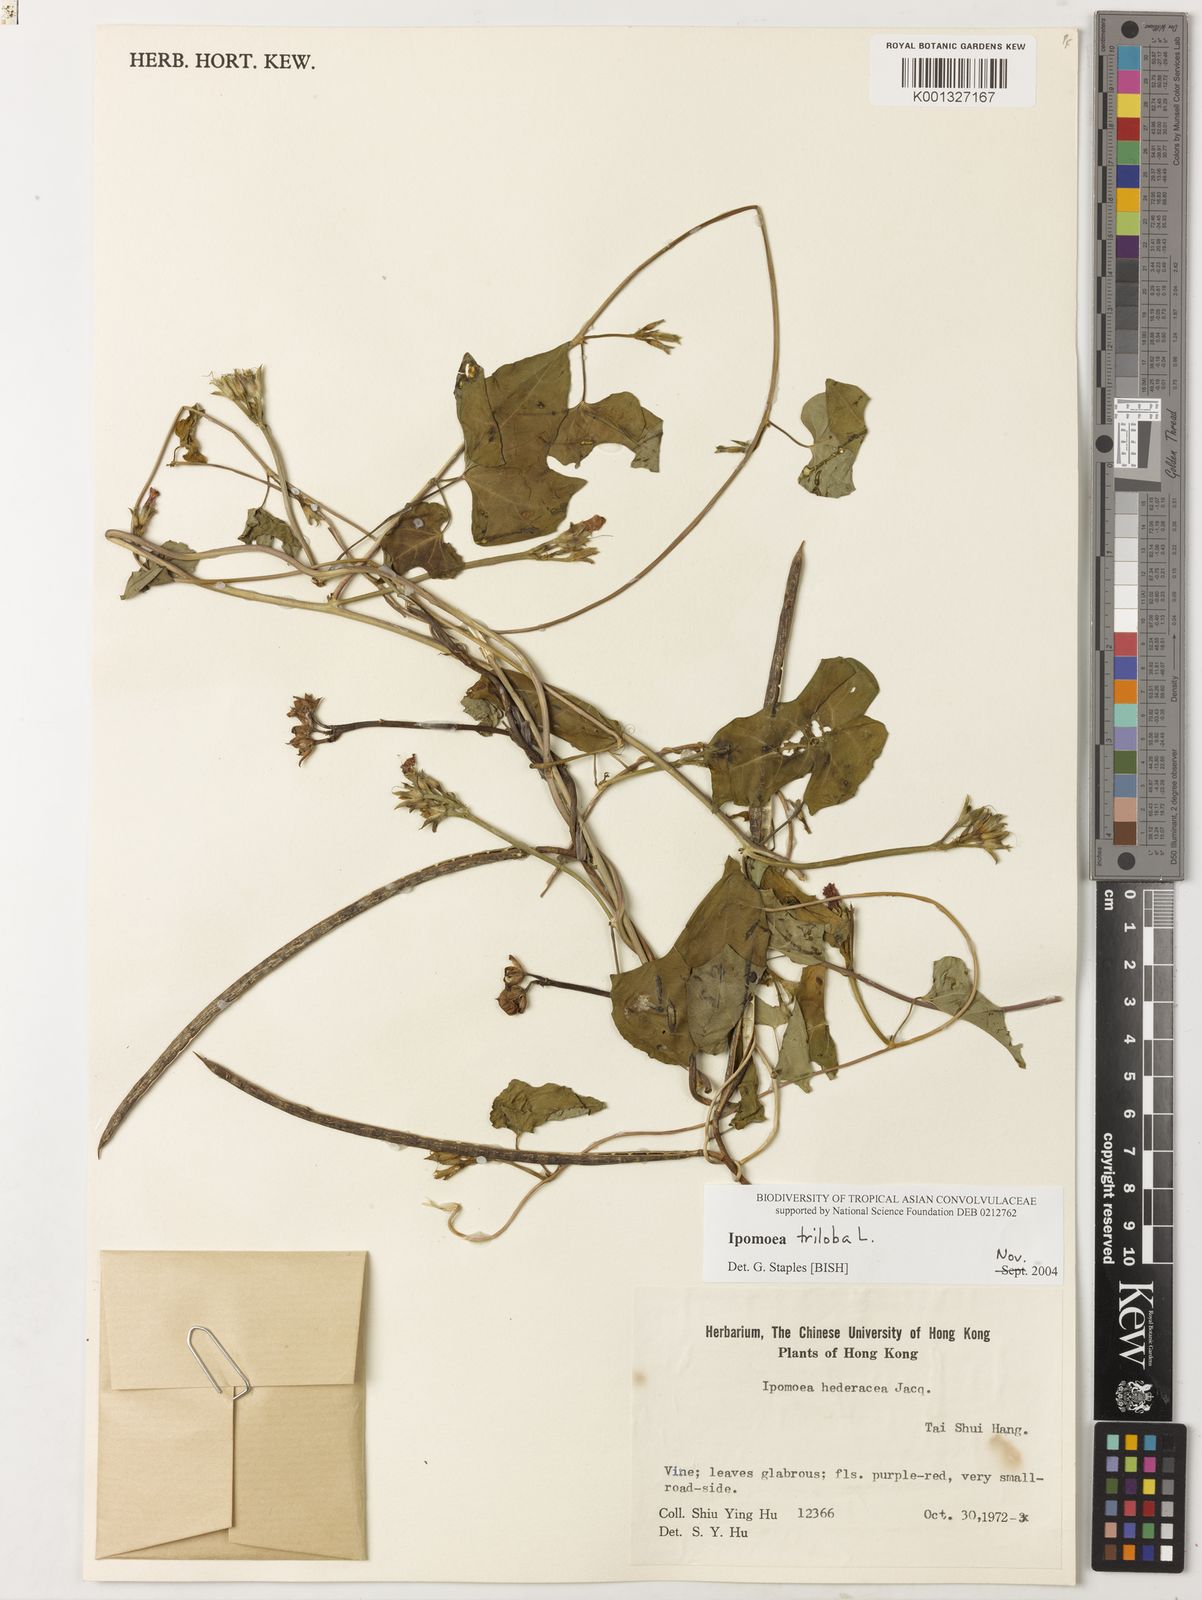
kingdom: Plantae
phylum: Tracheophyta
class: Magnoliopsida
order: Solanales
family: Convolvulaceae
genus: Ipomoea
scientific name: Ipomoea triloba
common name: Little-bell
